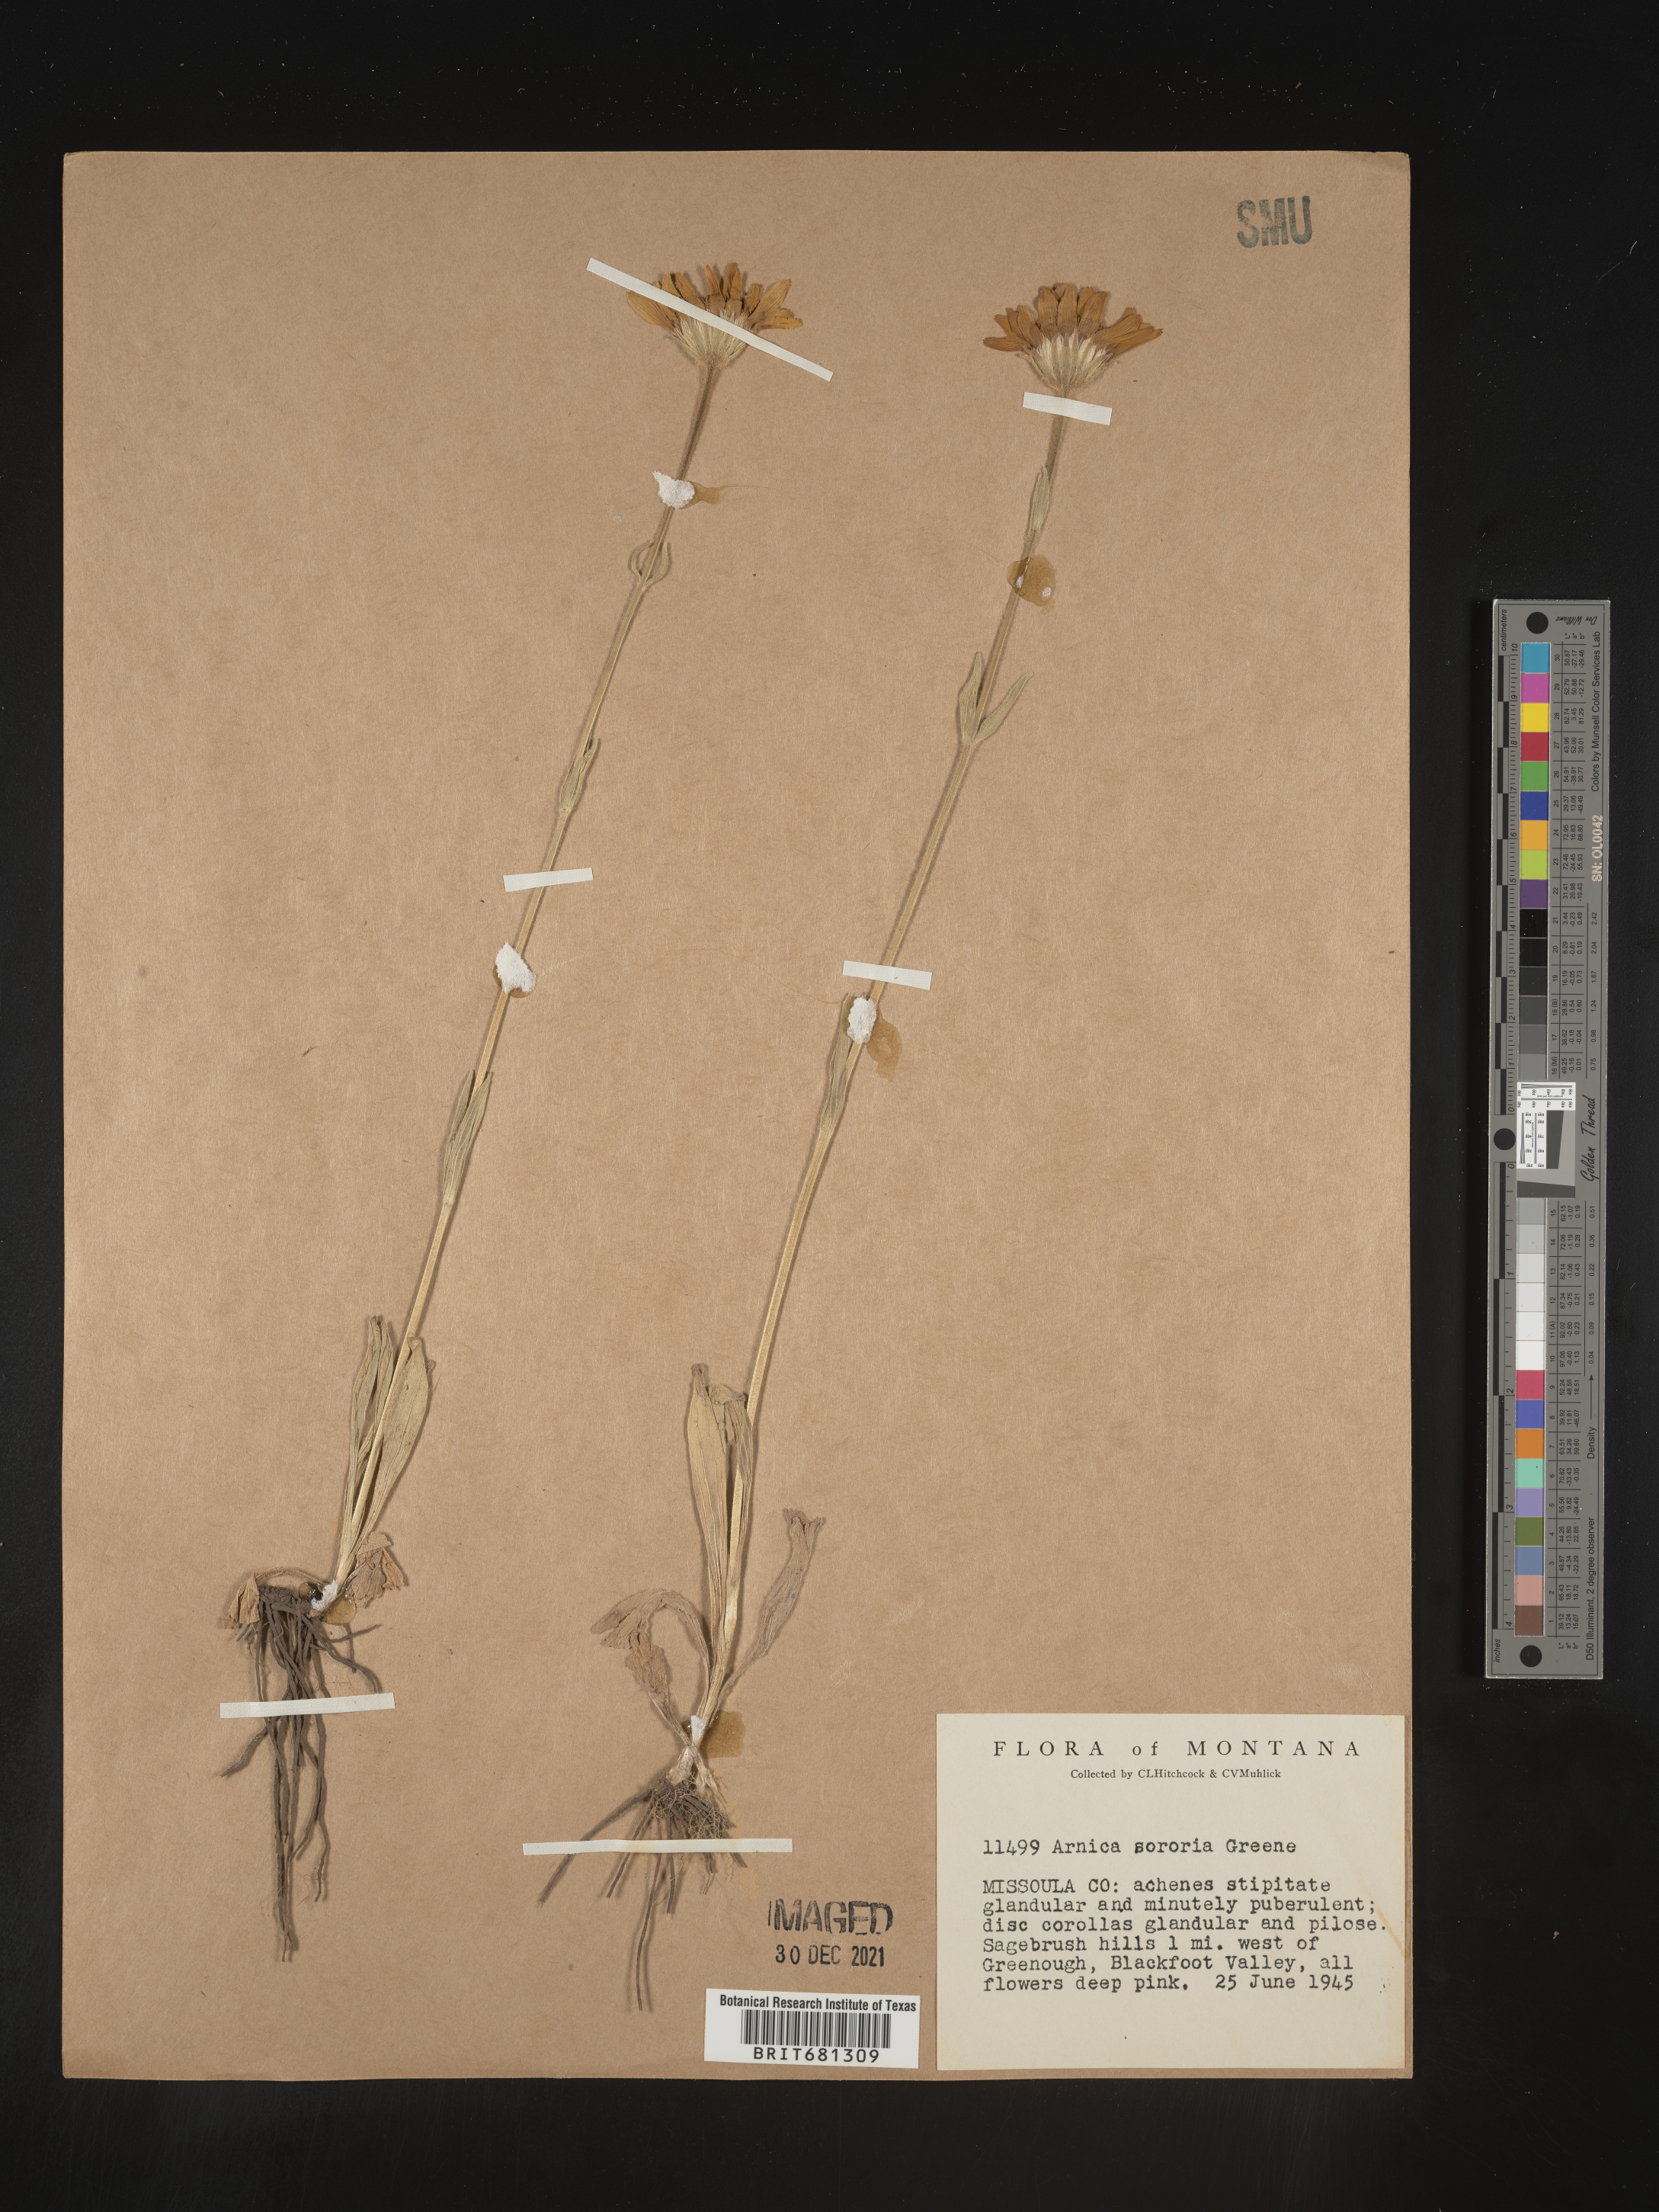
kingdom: Plantae
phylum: Tracheophyta
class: Magnoliopsida
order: Asterales
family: Asteraceae
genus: Arnica
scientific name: Arnica sororia
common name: Twin arnica
